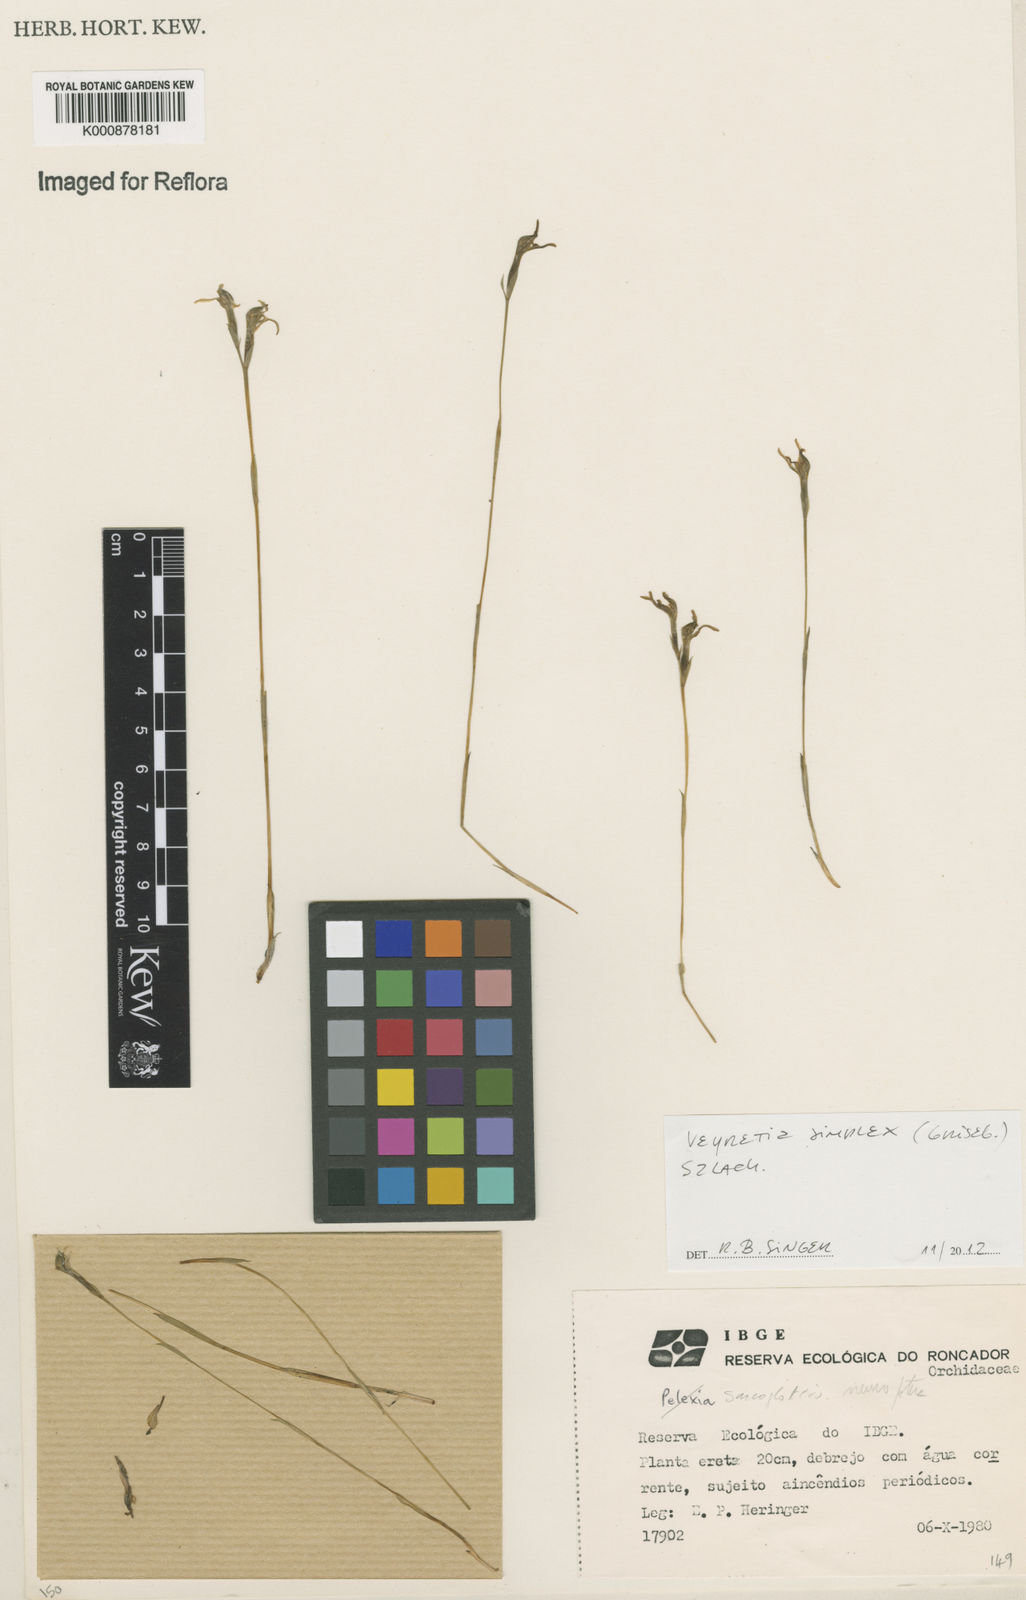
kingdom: Plantae
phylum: Tracheophyta
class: Liliopsida
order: Asparagales
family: Orchidaceae
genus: Veyretia
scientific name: Veyretia simplex
